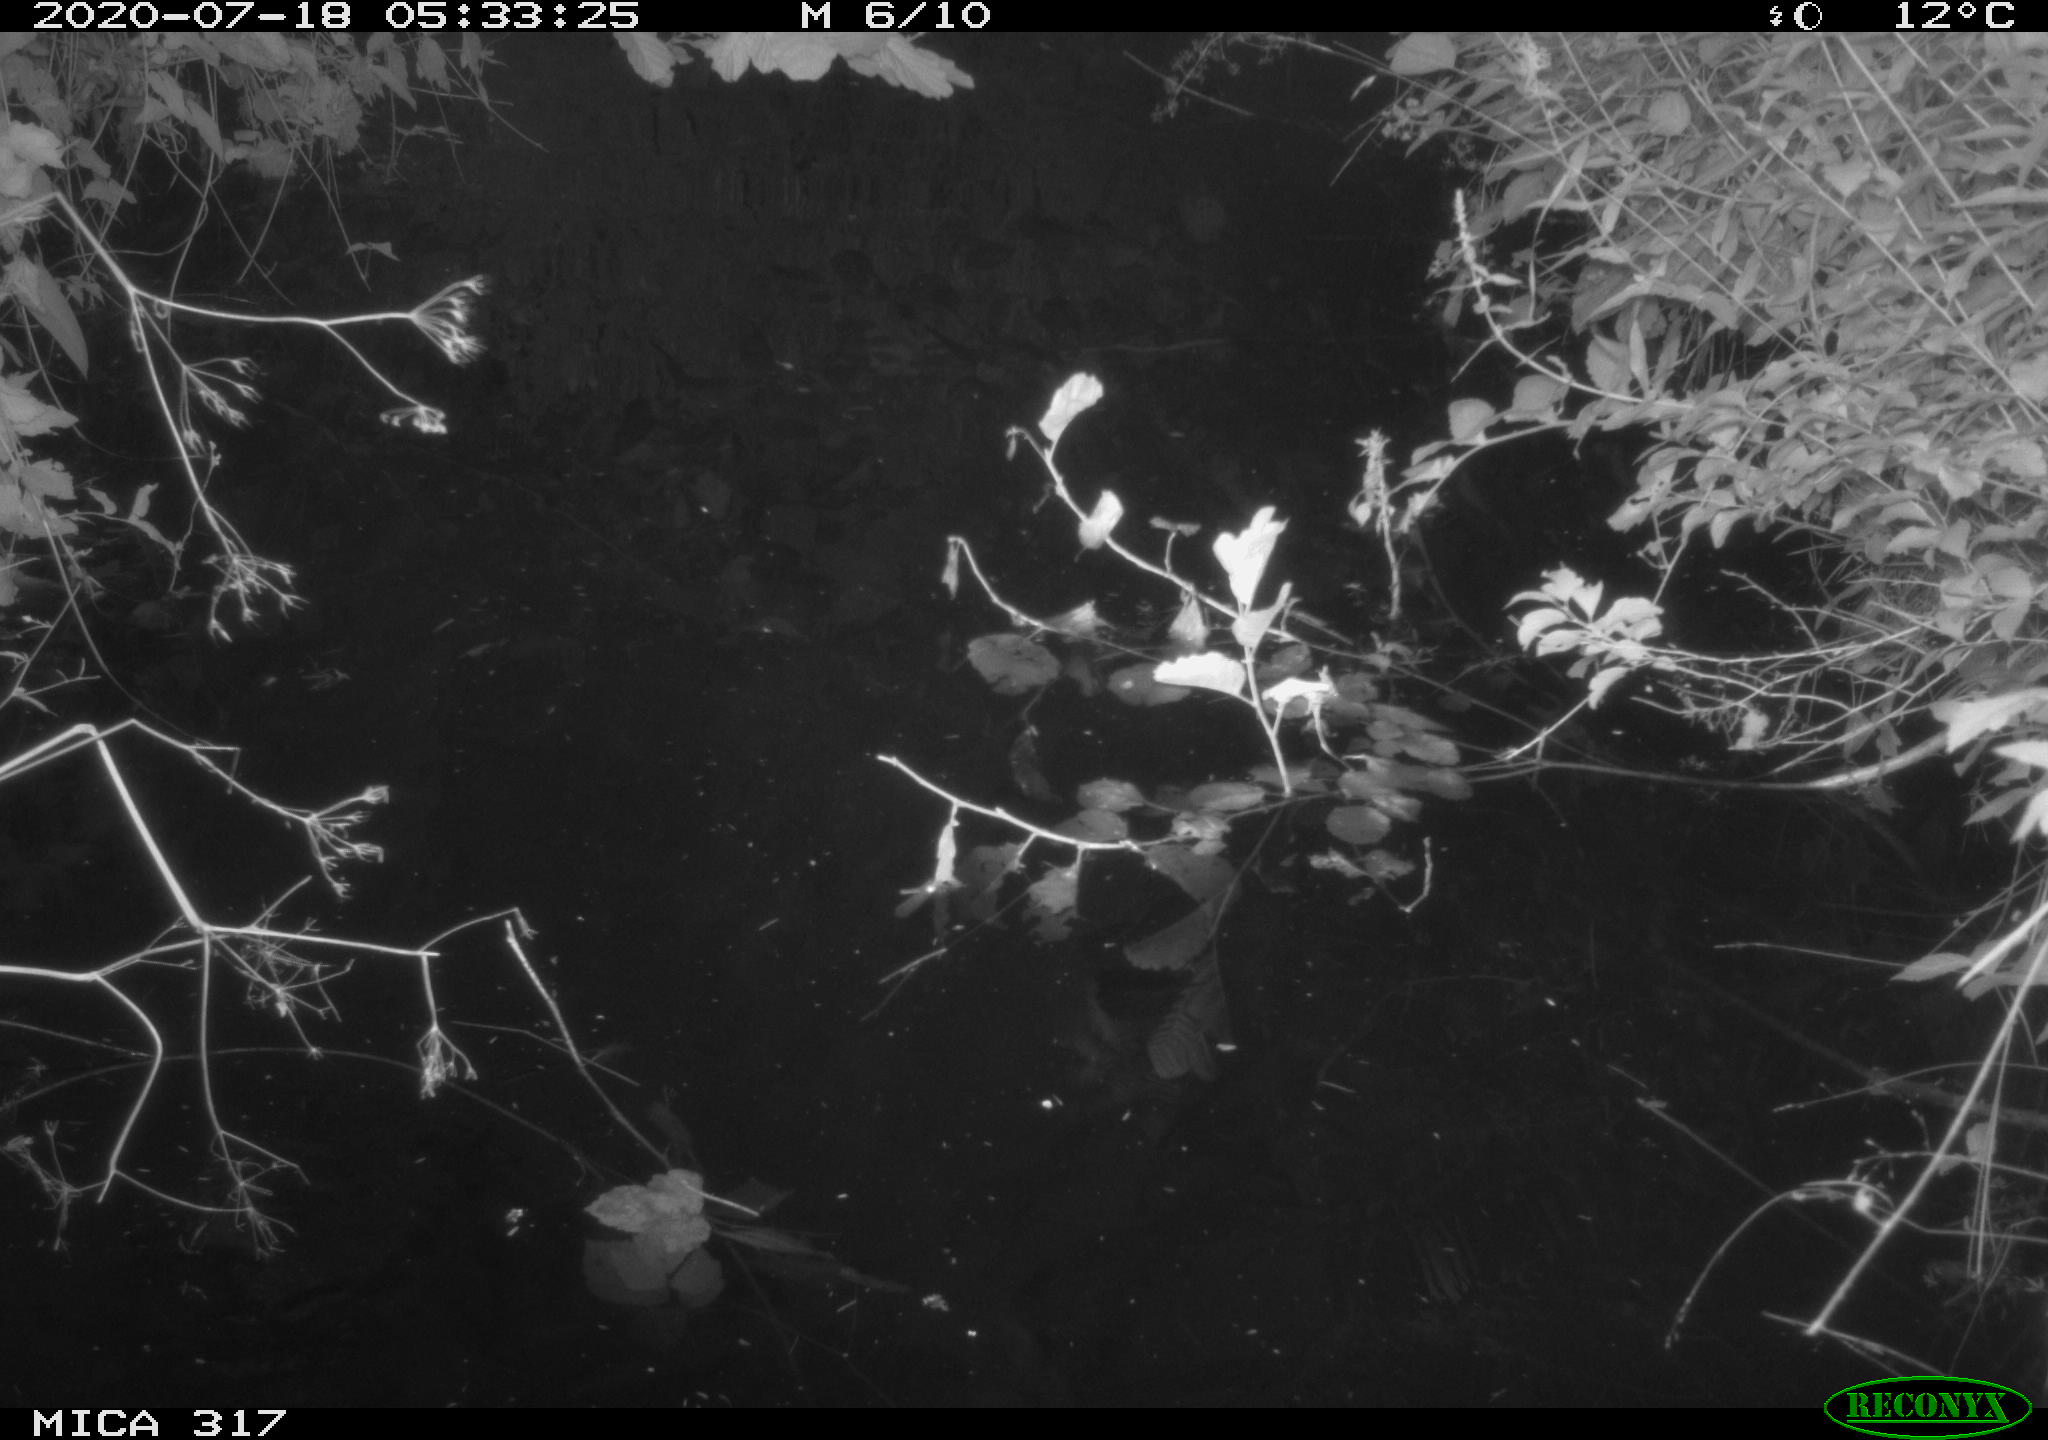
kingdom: Animalia
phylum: Chordata
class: Aves
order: Gruiformes
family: Rallidae
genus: Gallinula
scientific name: Gallinula chloropus
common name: Common moorhen
